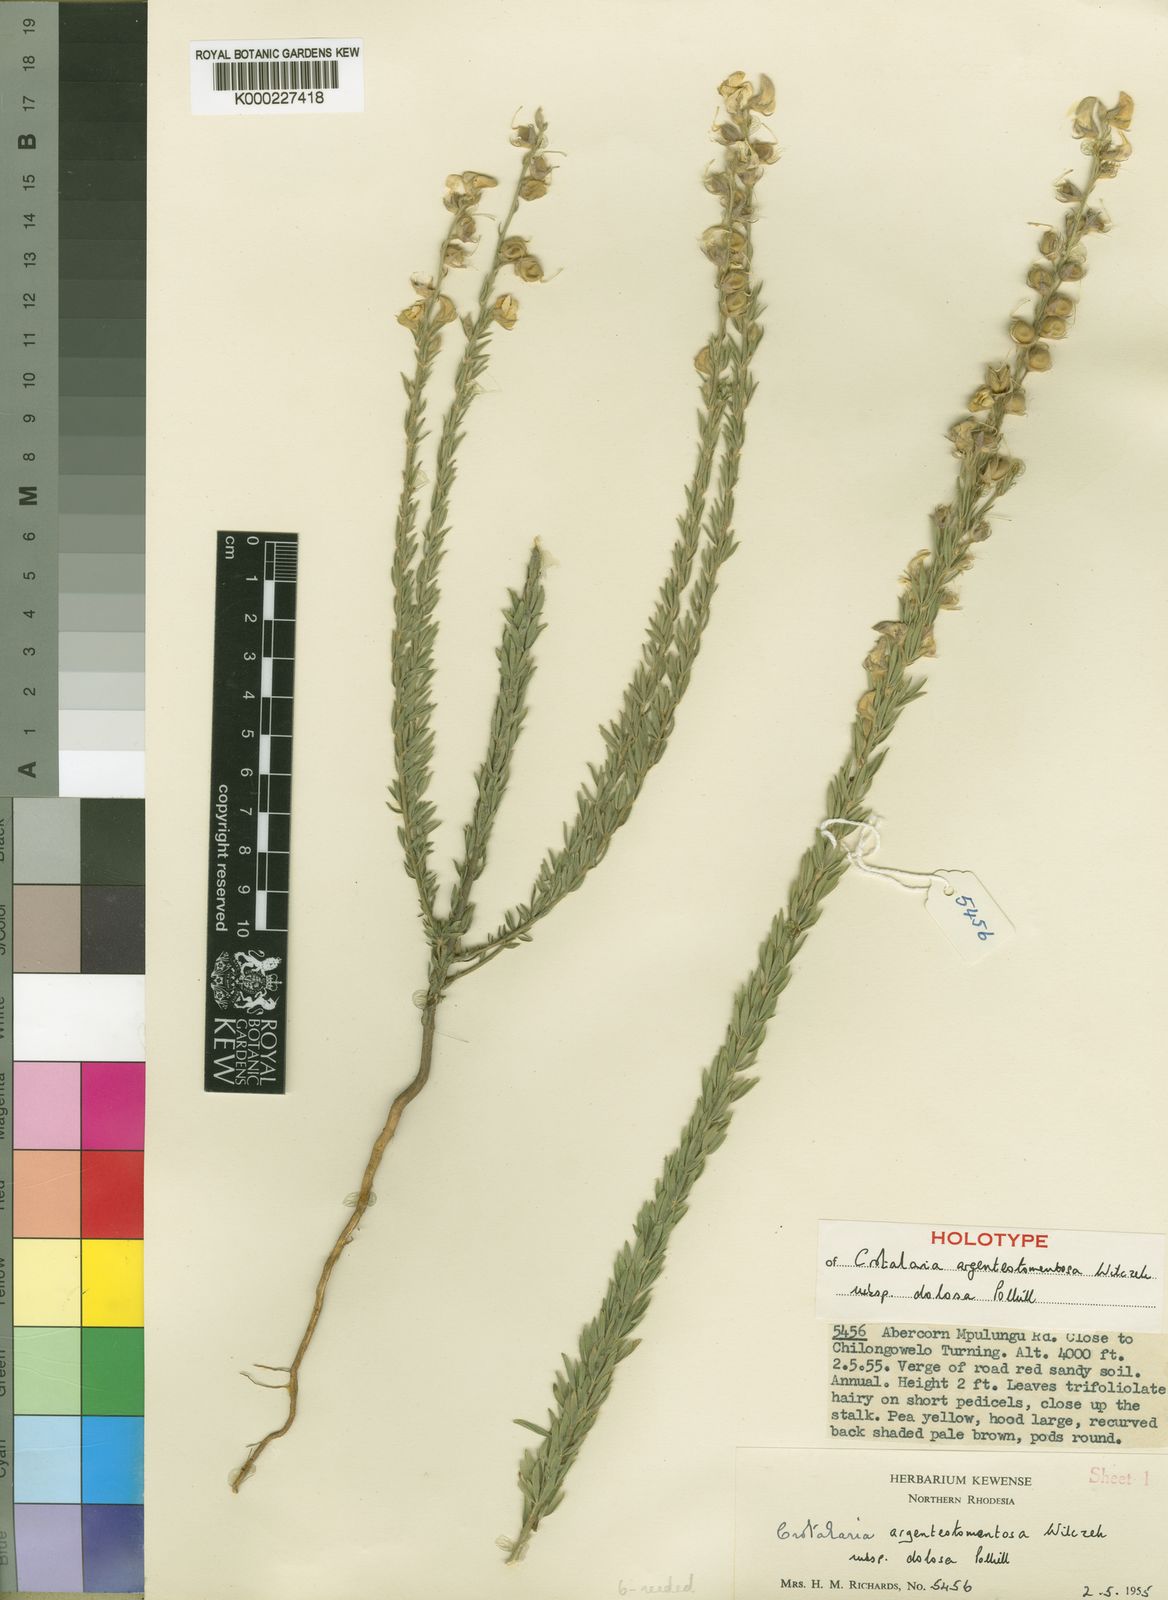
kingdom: Plantae
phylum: Tracheophyta
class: Magnoliopsida
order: Fabales
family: Fabaceae
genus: Crotalaria
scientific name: Crotalaria argenteotomentosa
